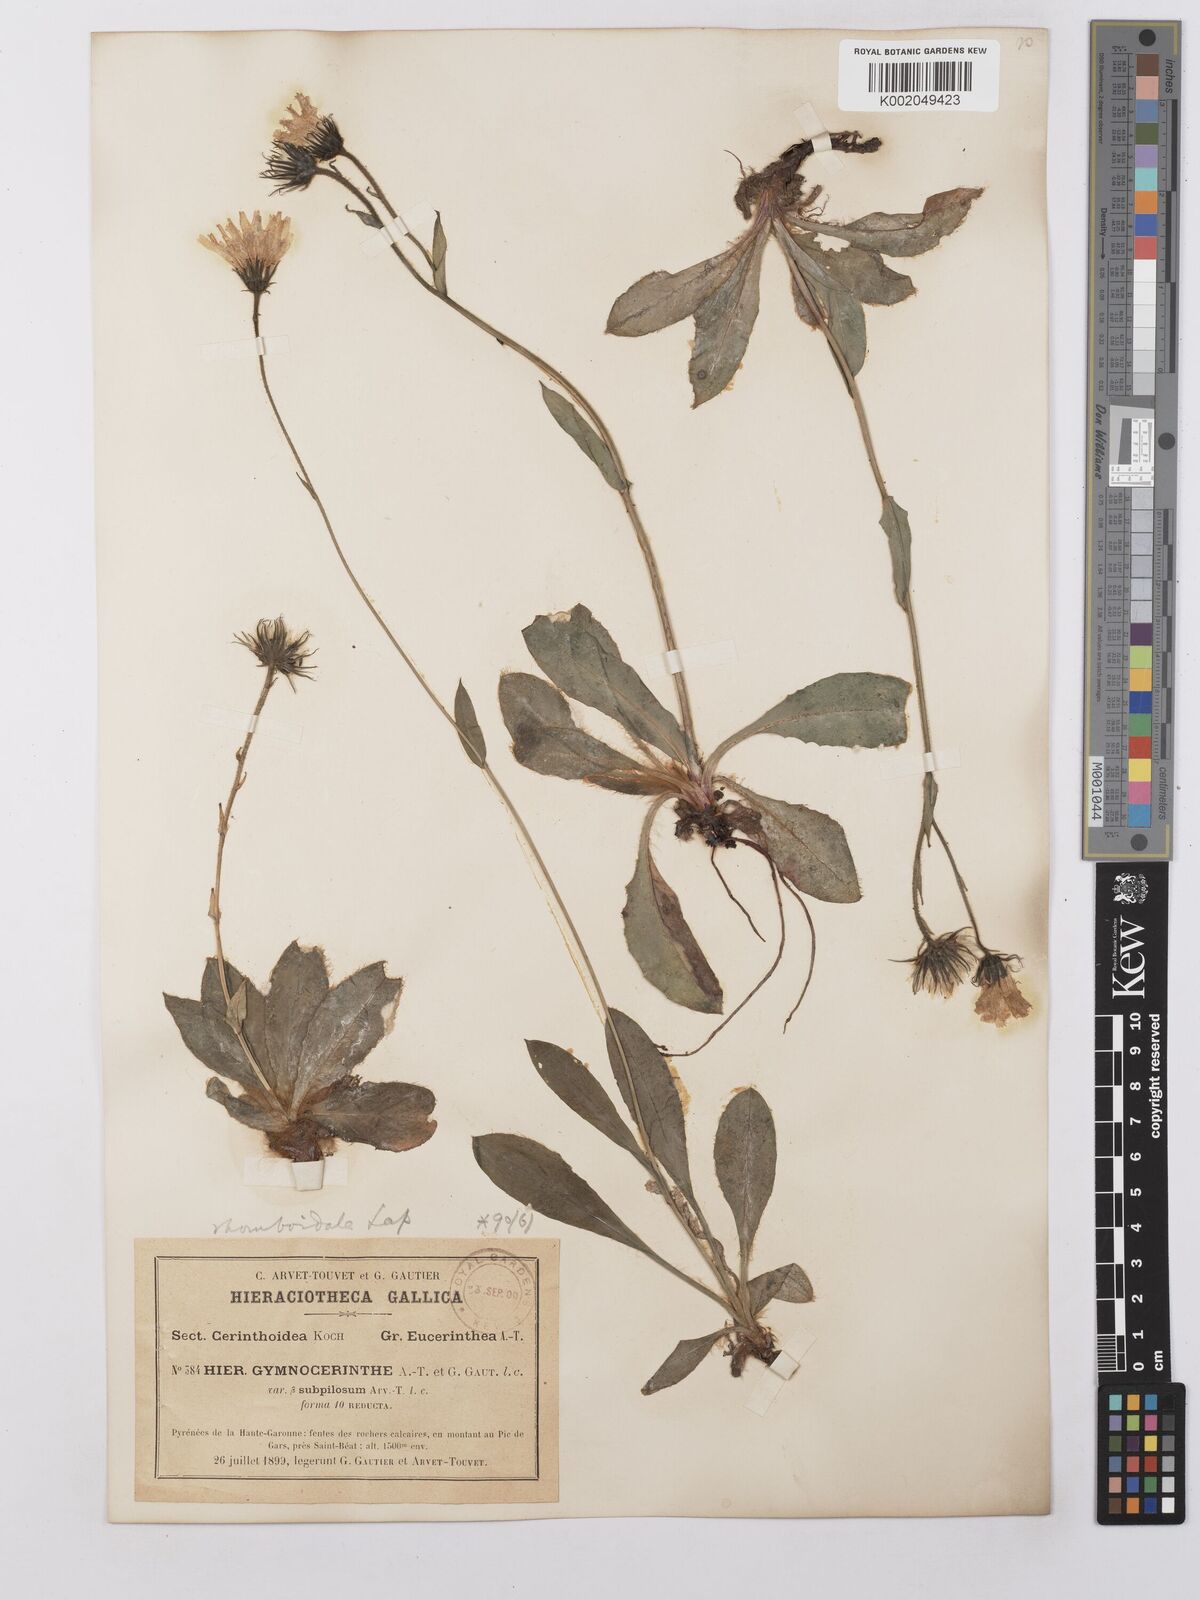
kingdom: Plantae
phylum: Tracheophyta
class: Magnoliopsida
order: Asterales
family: Asteraceae
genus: Hieracium
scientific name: Hieracium cerinthoides
